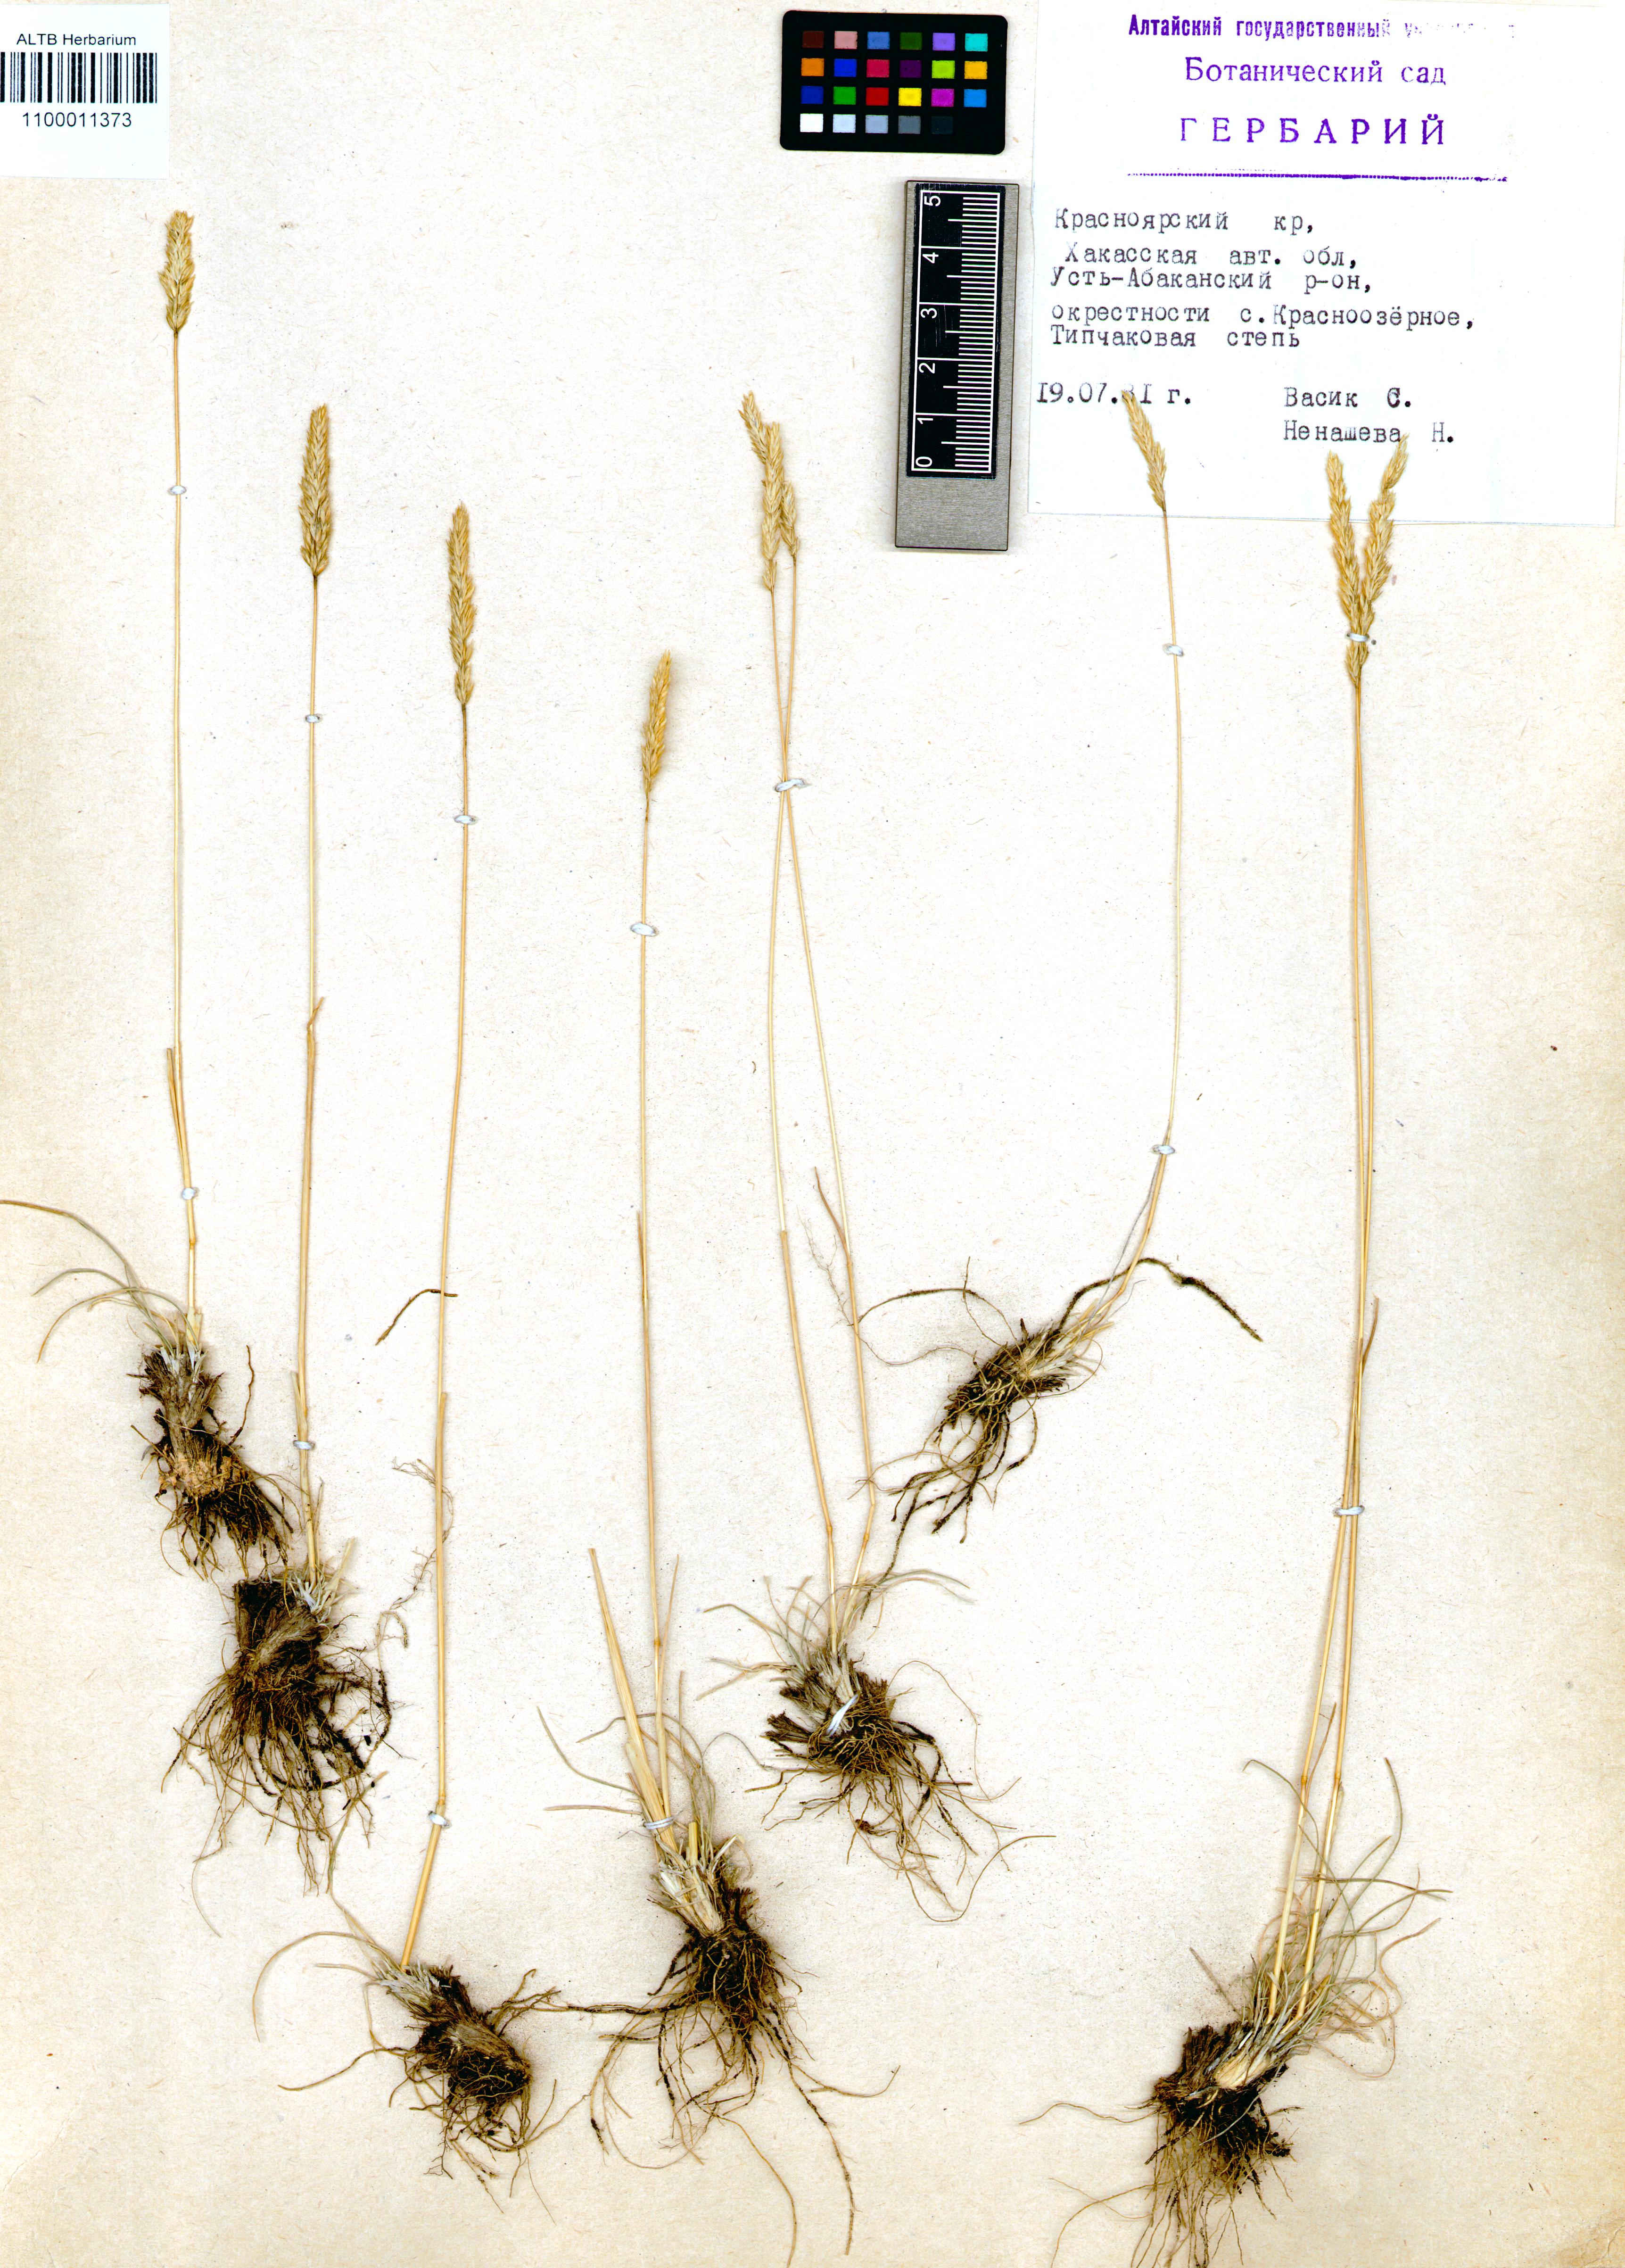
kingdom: Plantae
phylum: Tracheophyta
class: Liliopsida
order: Poales
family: Poaceae
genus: Koeleria
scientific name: Koeleria pyramidata
